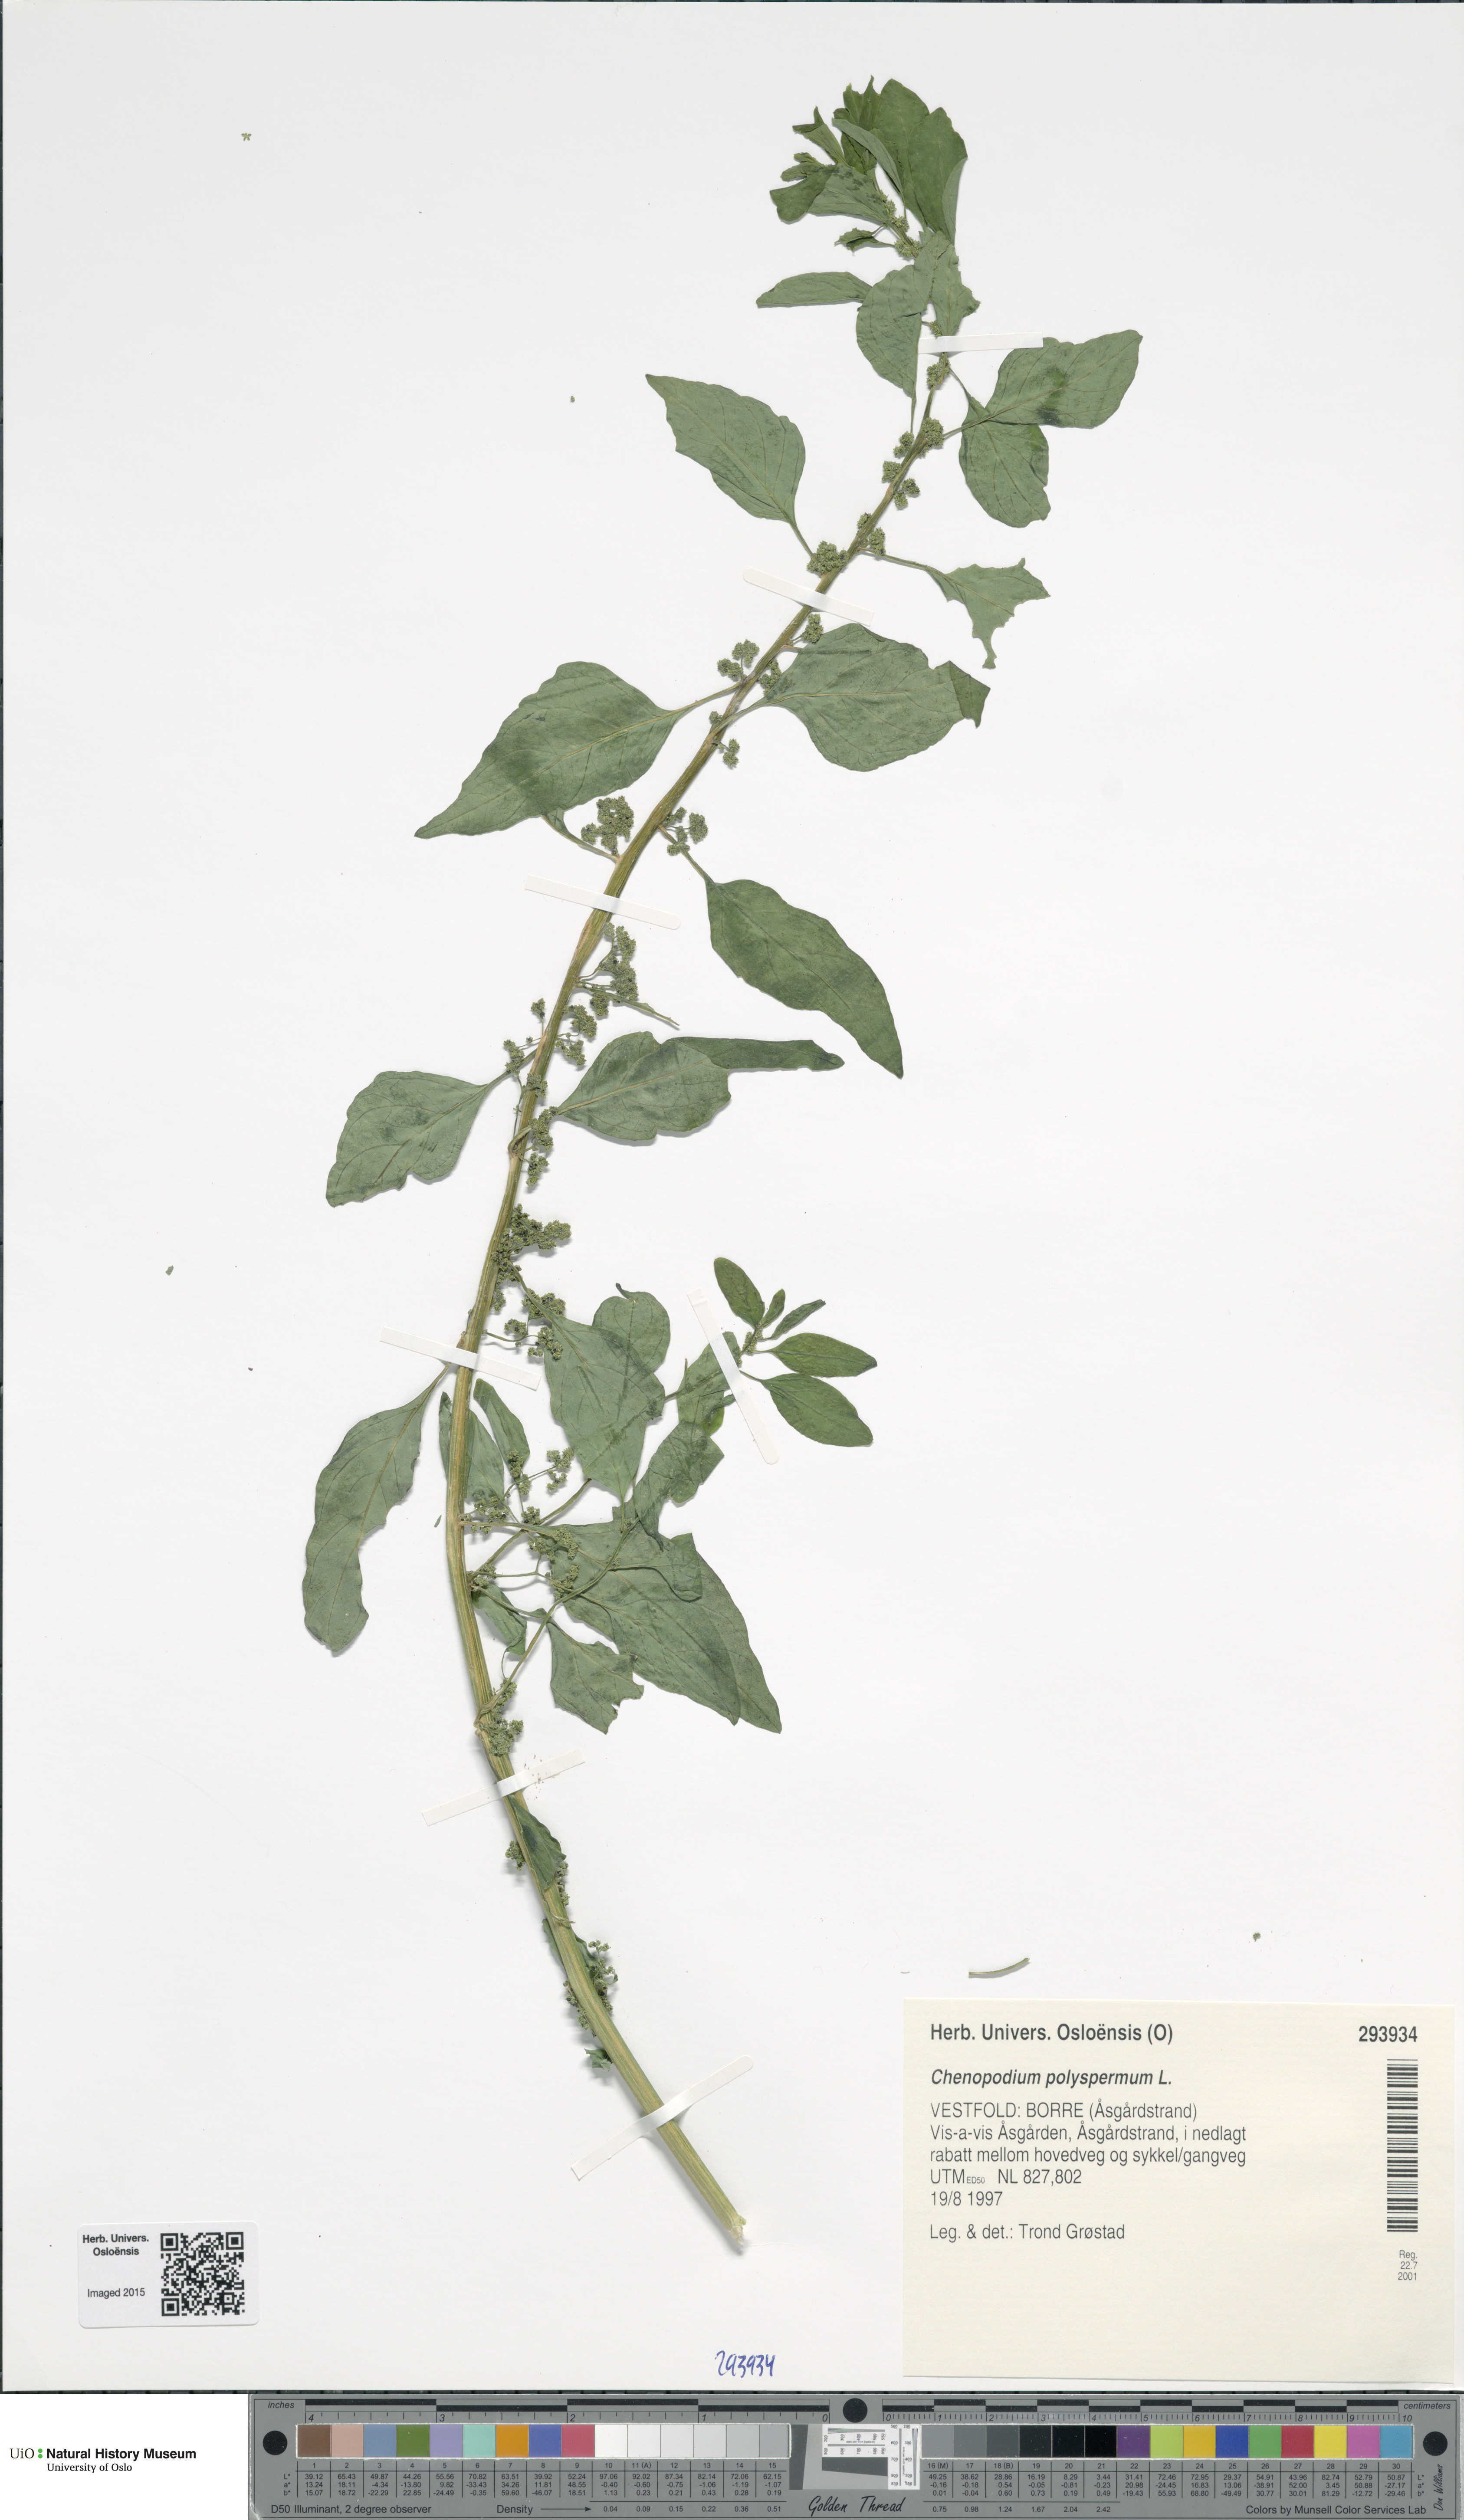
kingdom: Plantae
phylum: Tracheophyta
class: Magnoliopsida
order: Caryophyllales
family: Amaranthaceae
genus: Lipandra
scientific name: Lipandra polysperma
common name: Many-seed goosefoot
